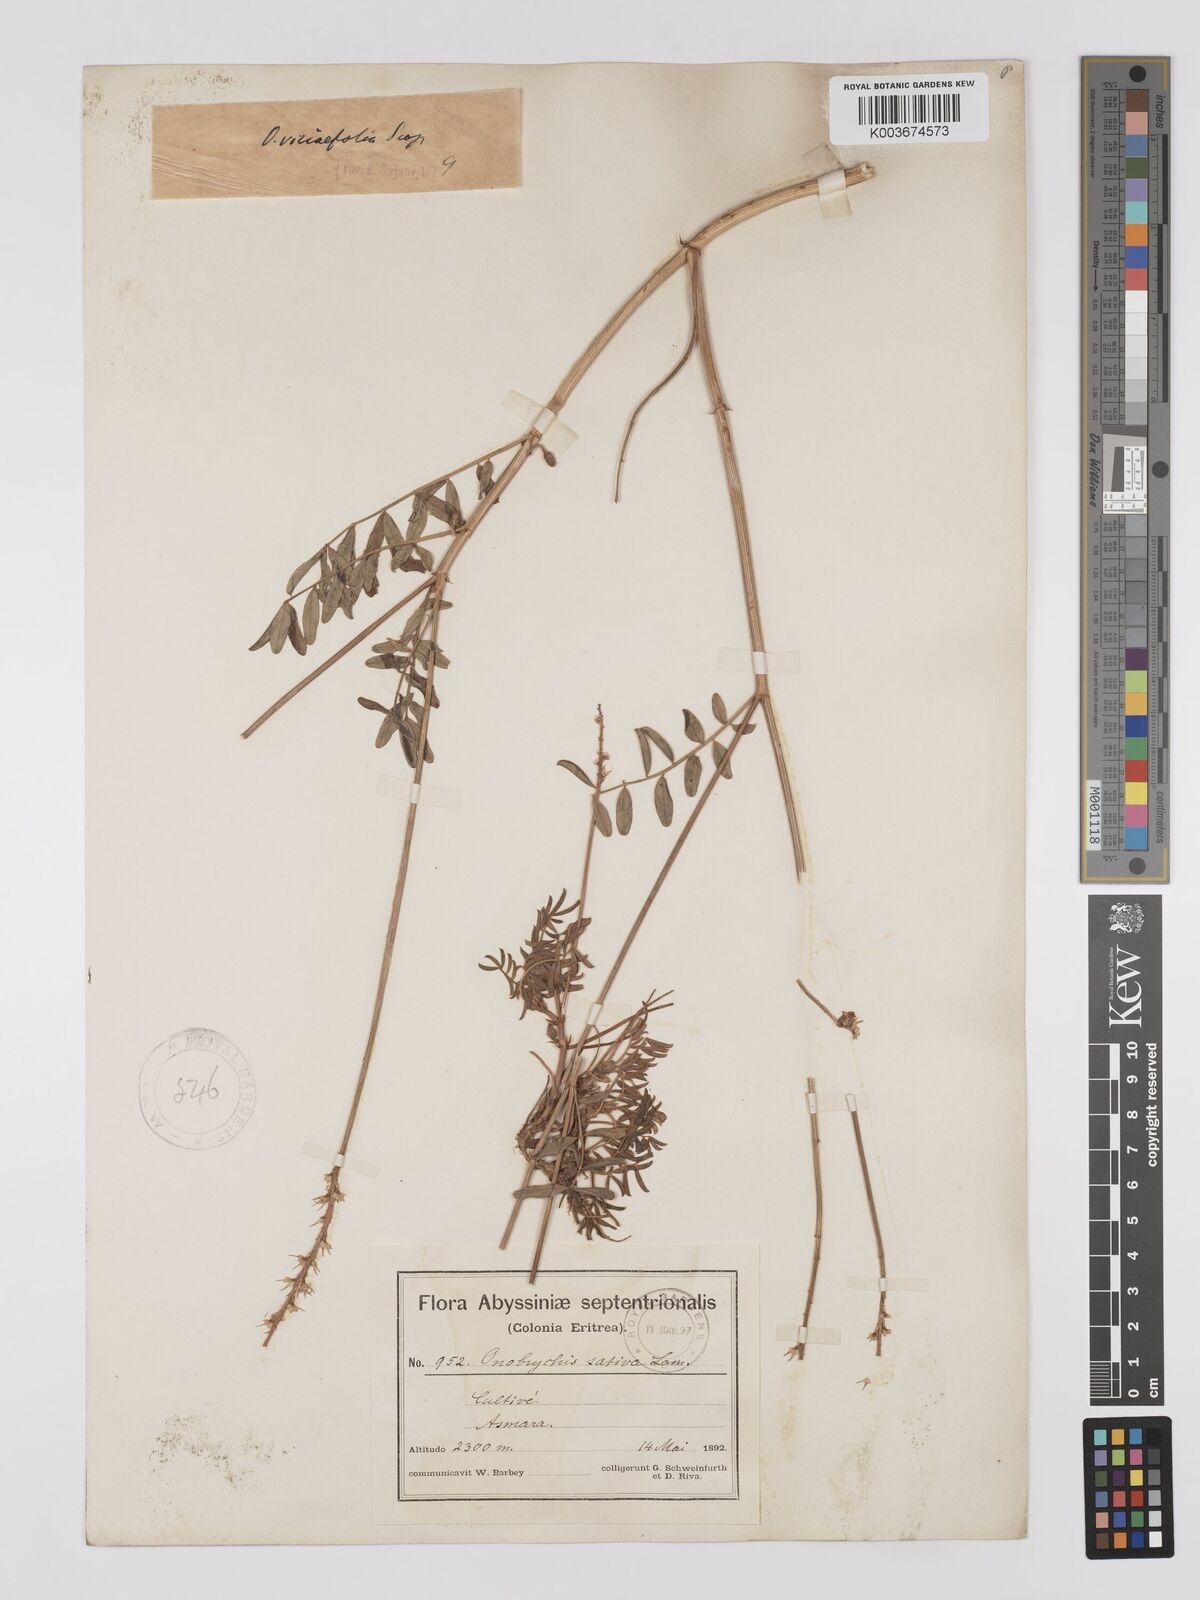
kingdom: Plantae
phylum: Tracheophyta
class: Magnoliopsida
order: Fabales
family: Fabaceae
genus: Onobrychis
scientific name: Onobrychis viciifolia
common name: Sainfoin
